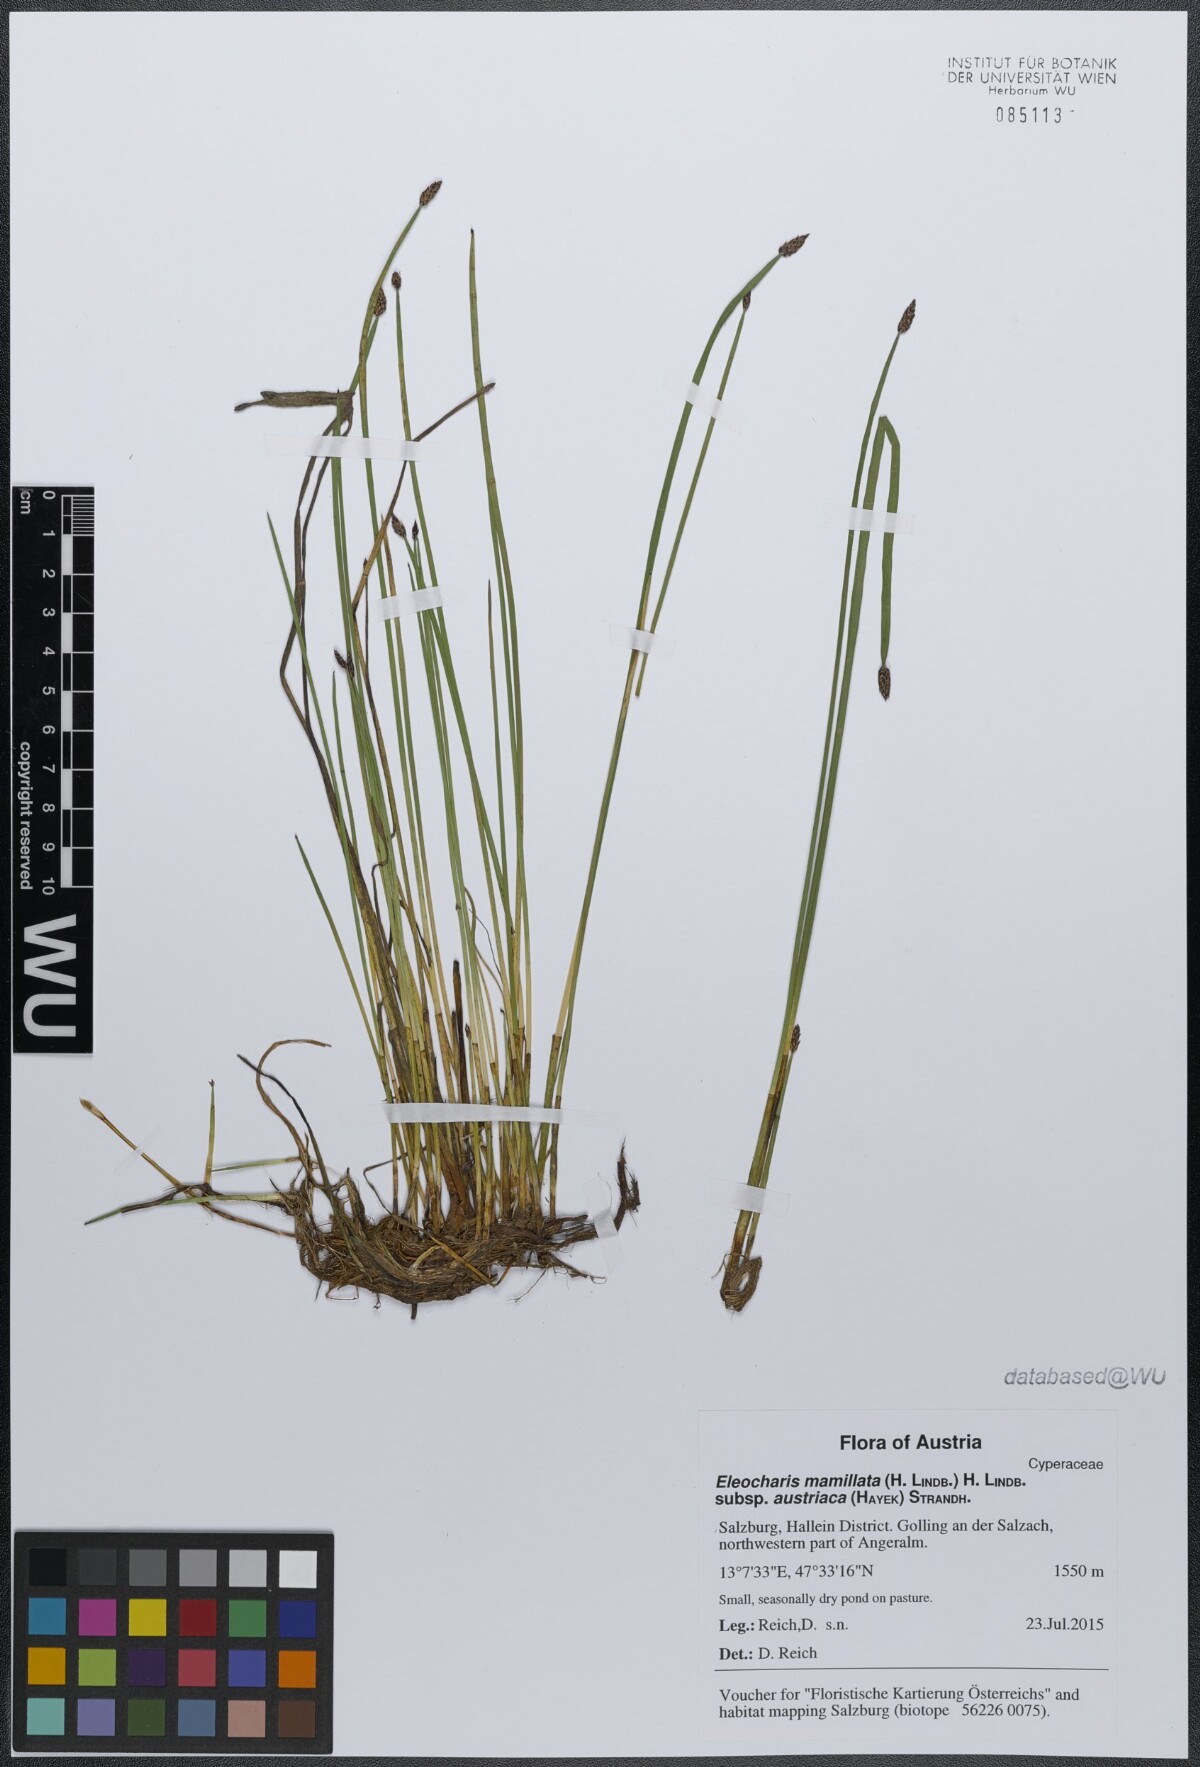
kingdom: Plantae
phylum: Tracheophyta
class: Liliopsida
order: Poales
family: Cyperaceae
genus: Eleocharis
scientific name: Eleocharis mamillata
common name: Northern spike-rush
